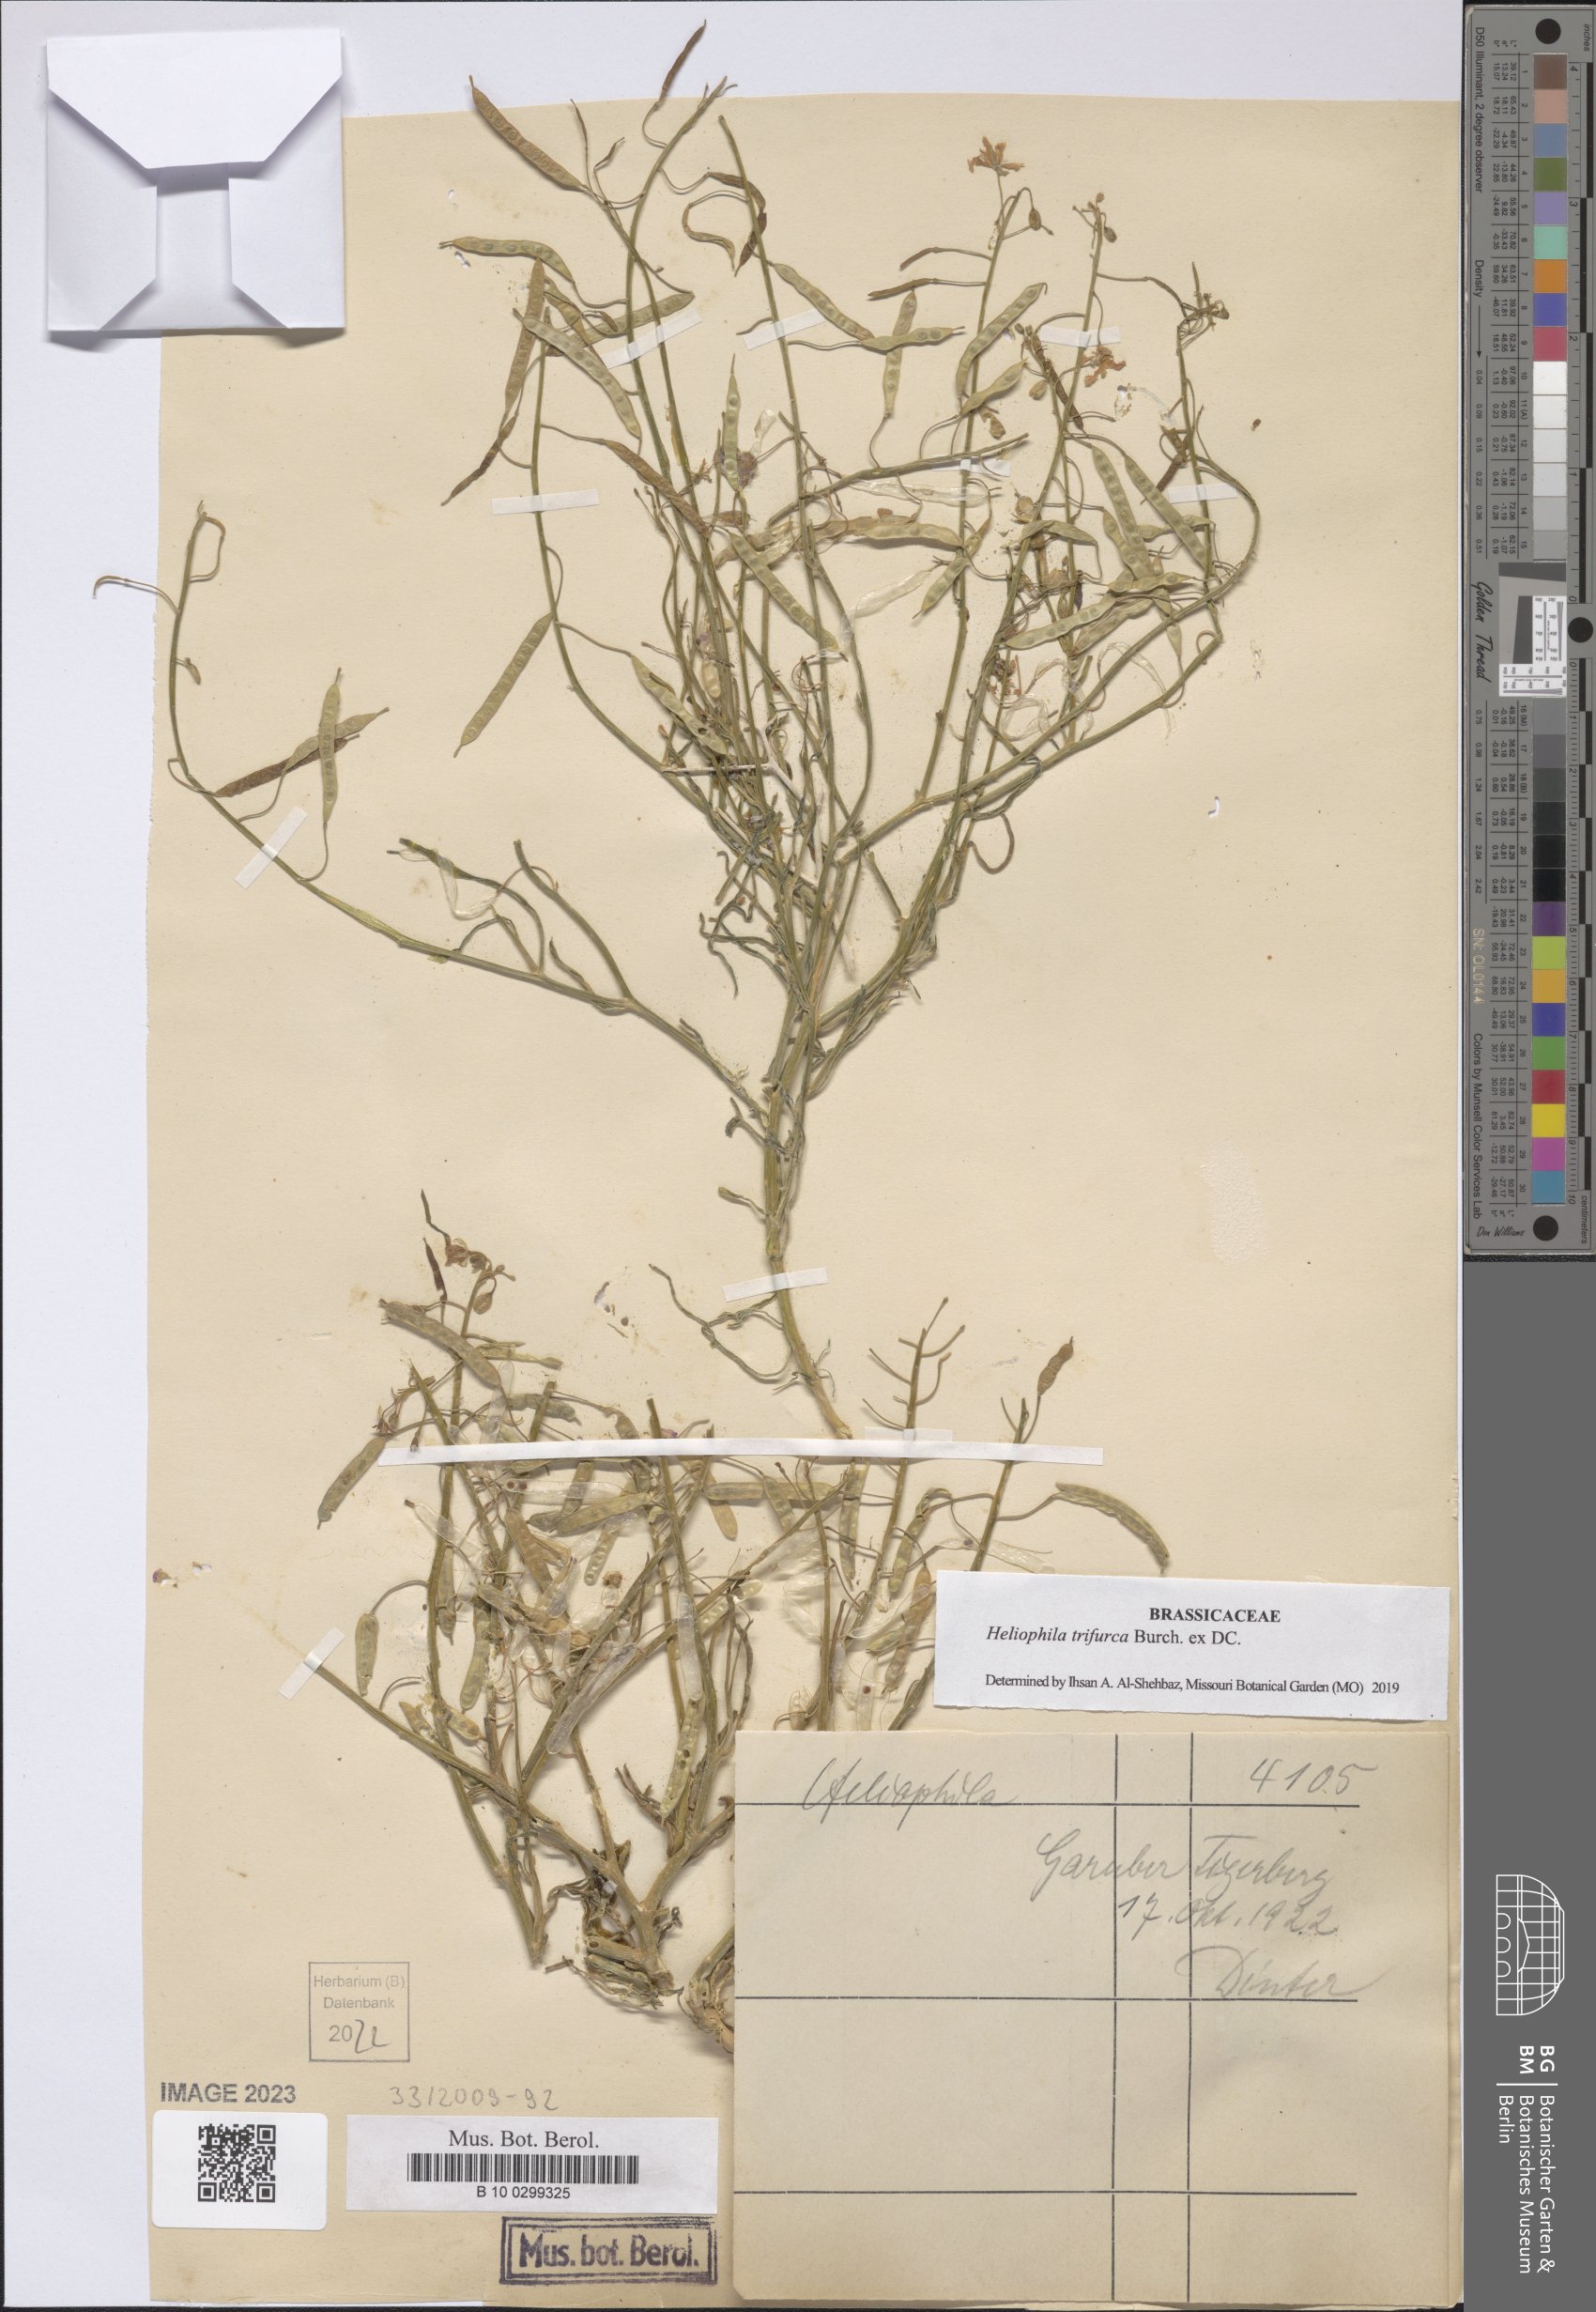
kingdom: Plantae
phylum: Tracheophyta
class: Magnoliopsida
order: Brassicales
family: Brassicaceae
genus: Heliophila
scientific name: Heliophila trifurca
